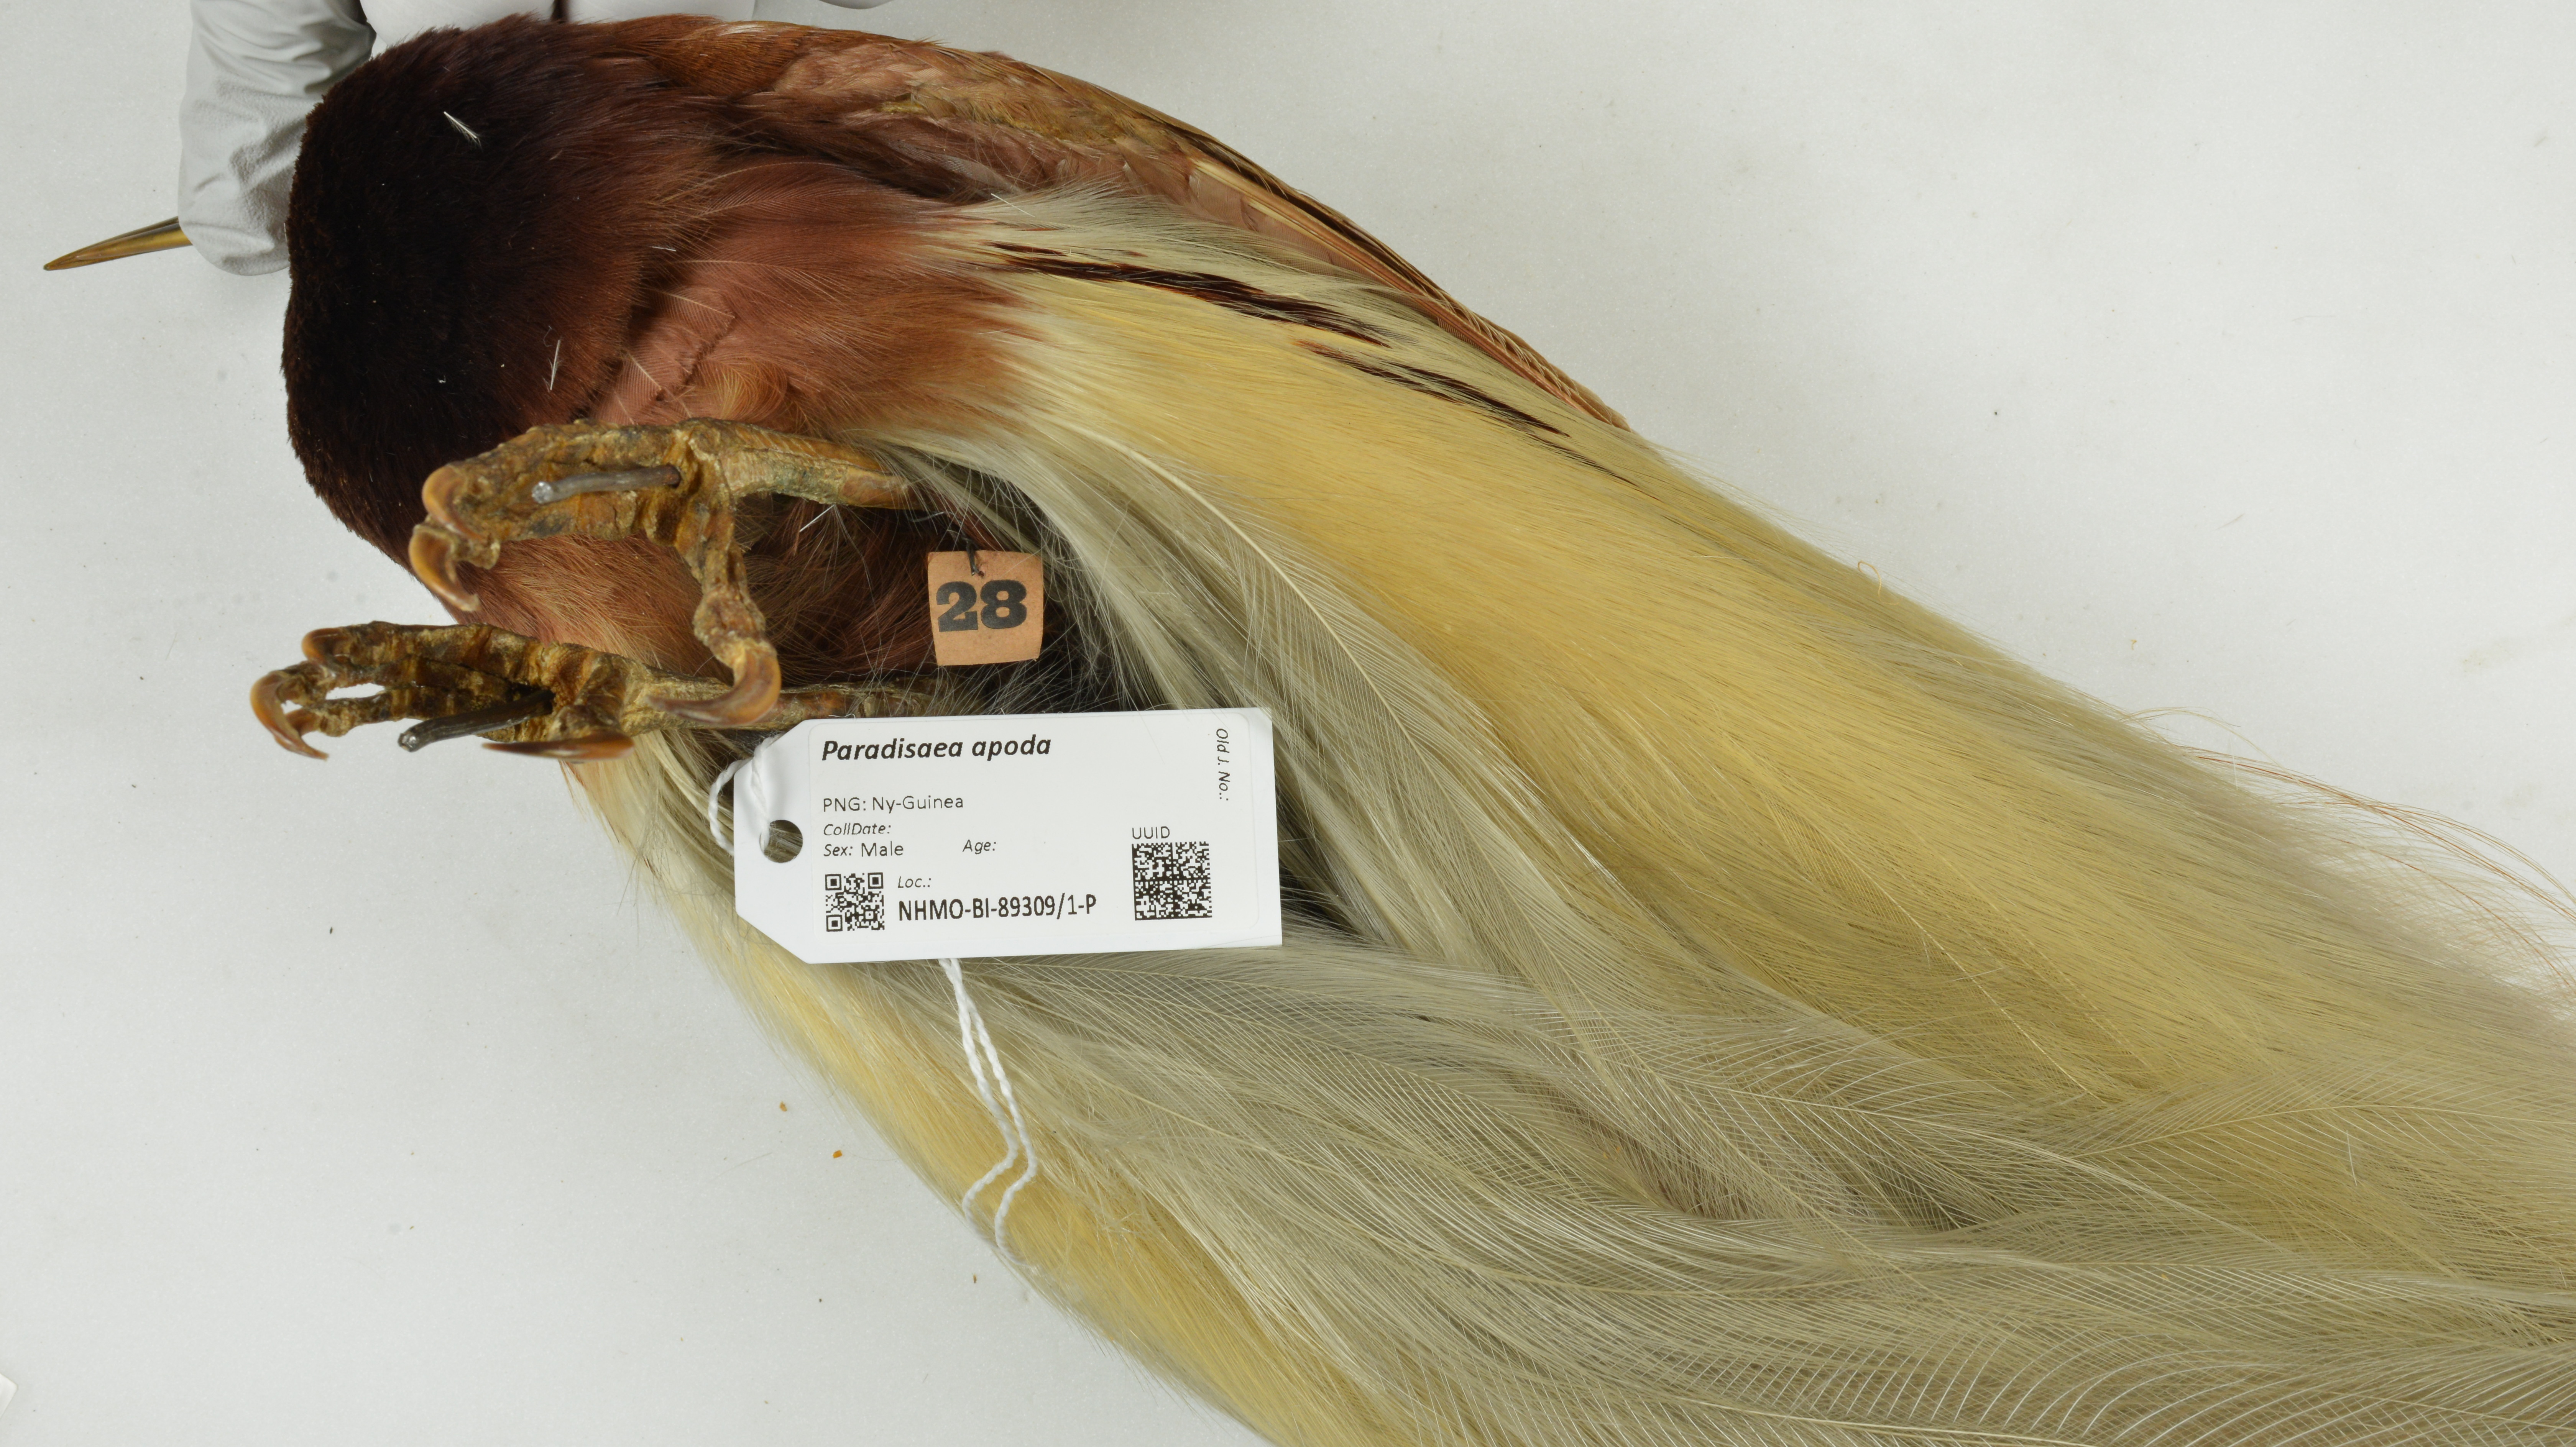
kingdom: Animalia
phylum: Chordata
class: Aves
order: Passeriformes
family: Paradisaeidae
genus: Paradisaea
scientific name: Paradisaea apoda
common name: Greater bird-of-paradise
